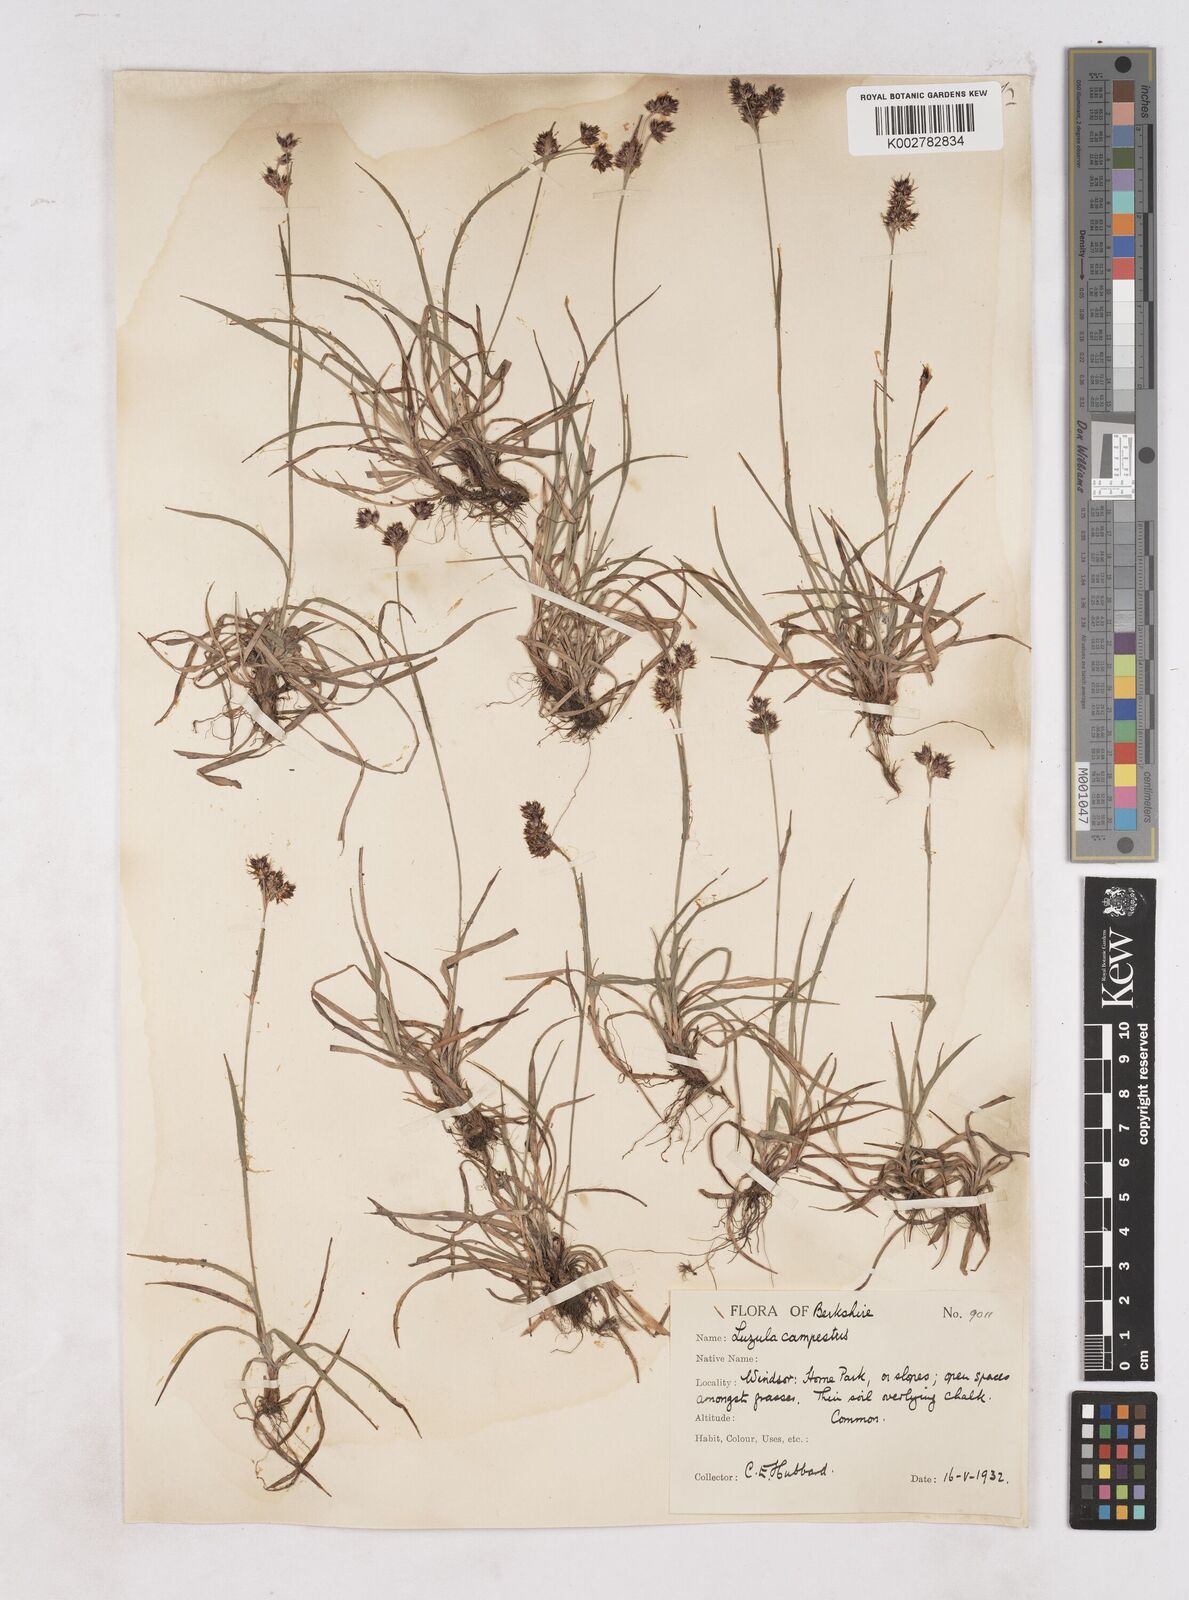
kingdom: Plantae
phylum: Tracheophyta
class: Liliopsida
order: Poales
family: Juncaceae
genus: Luzula
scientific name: Luzula campestris
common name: Field wood-rush
